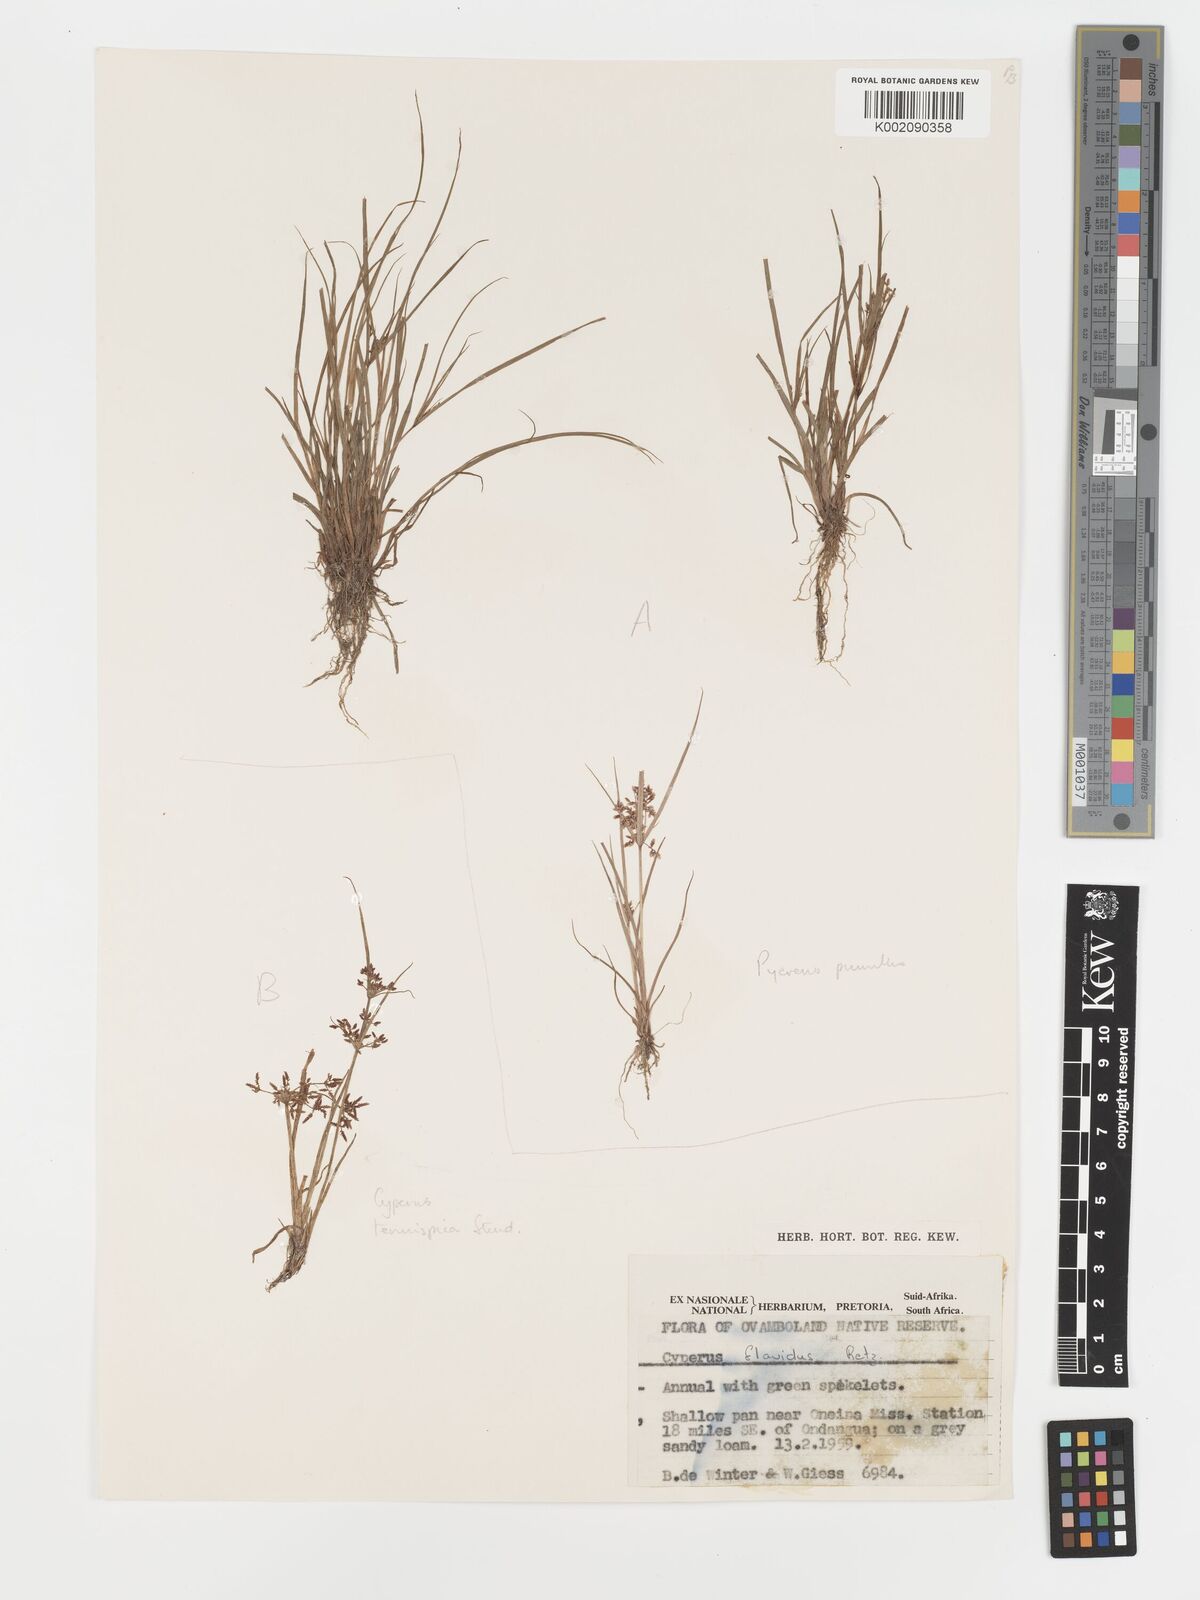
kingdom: Plantae
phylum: Tracheophyta
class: Liliopsida
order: Poales
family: Cyperaceae
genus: Cyperus
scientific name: Cyperus tenuispica
